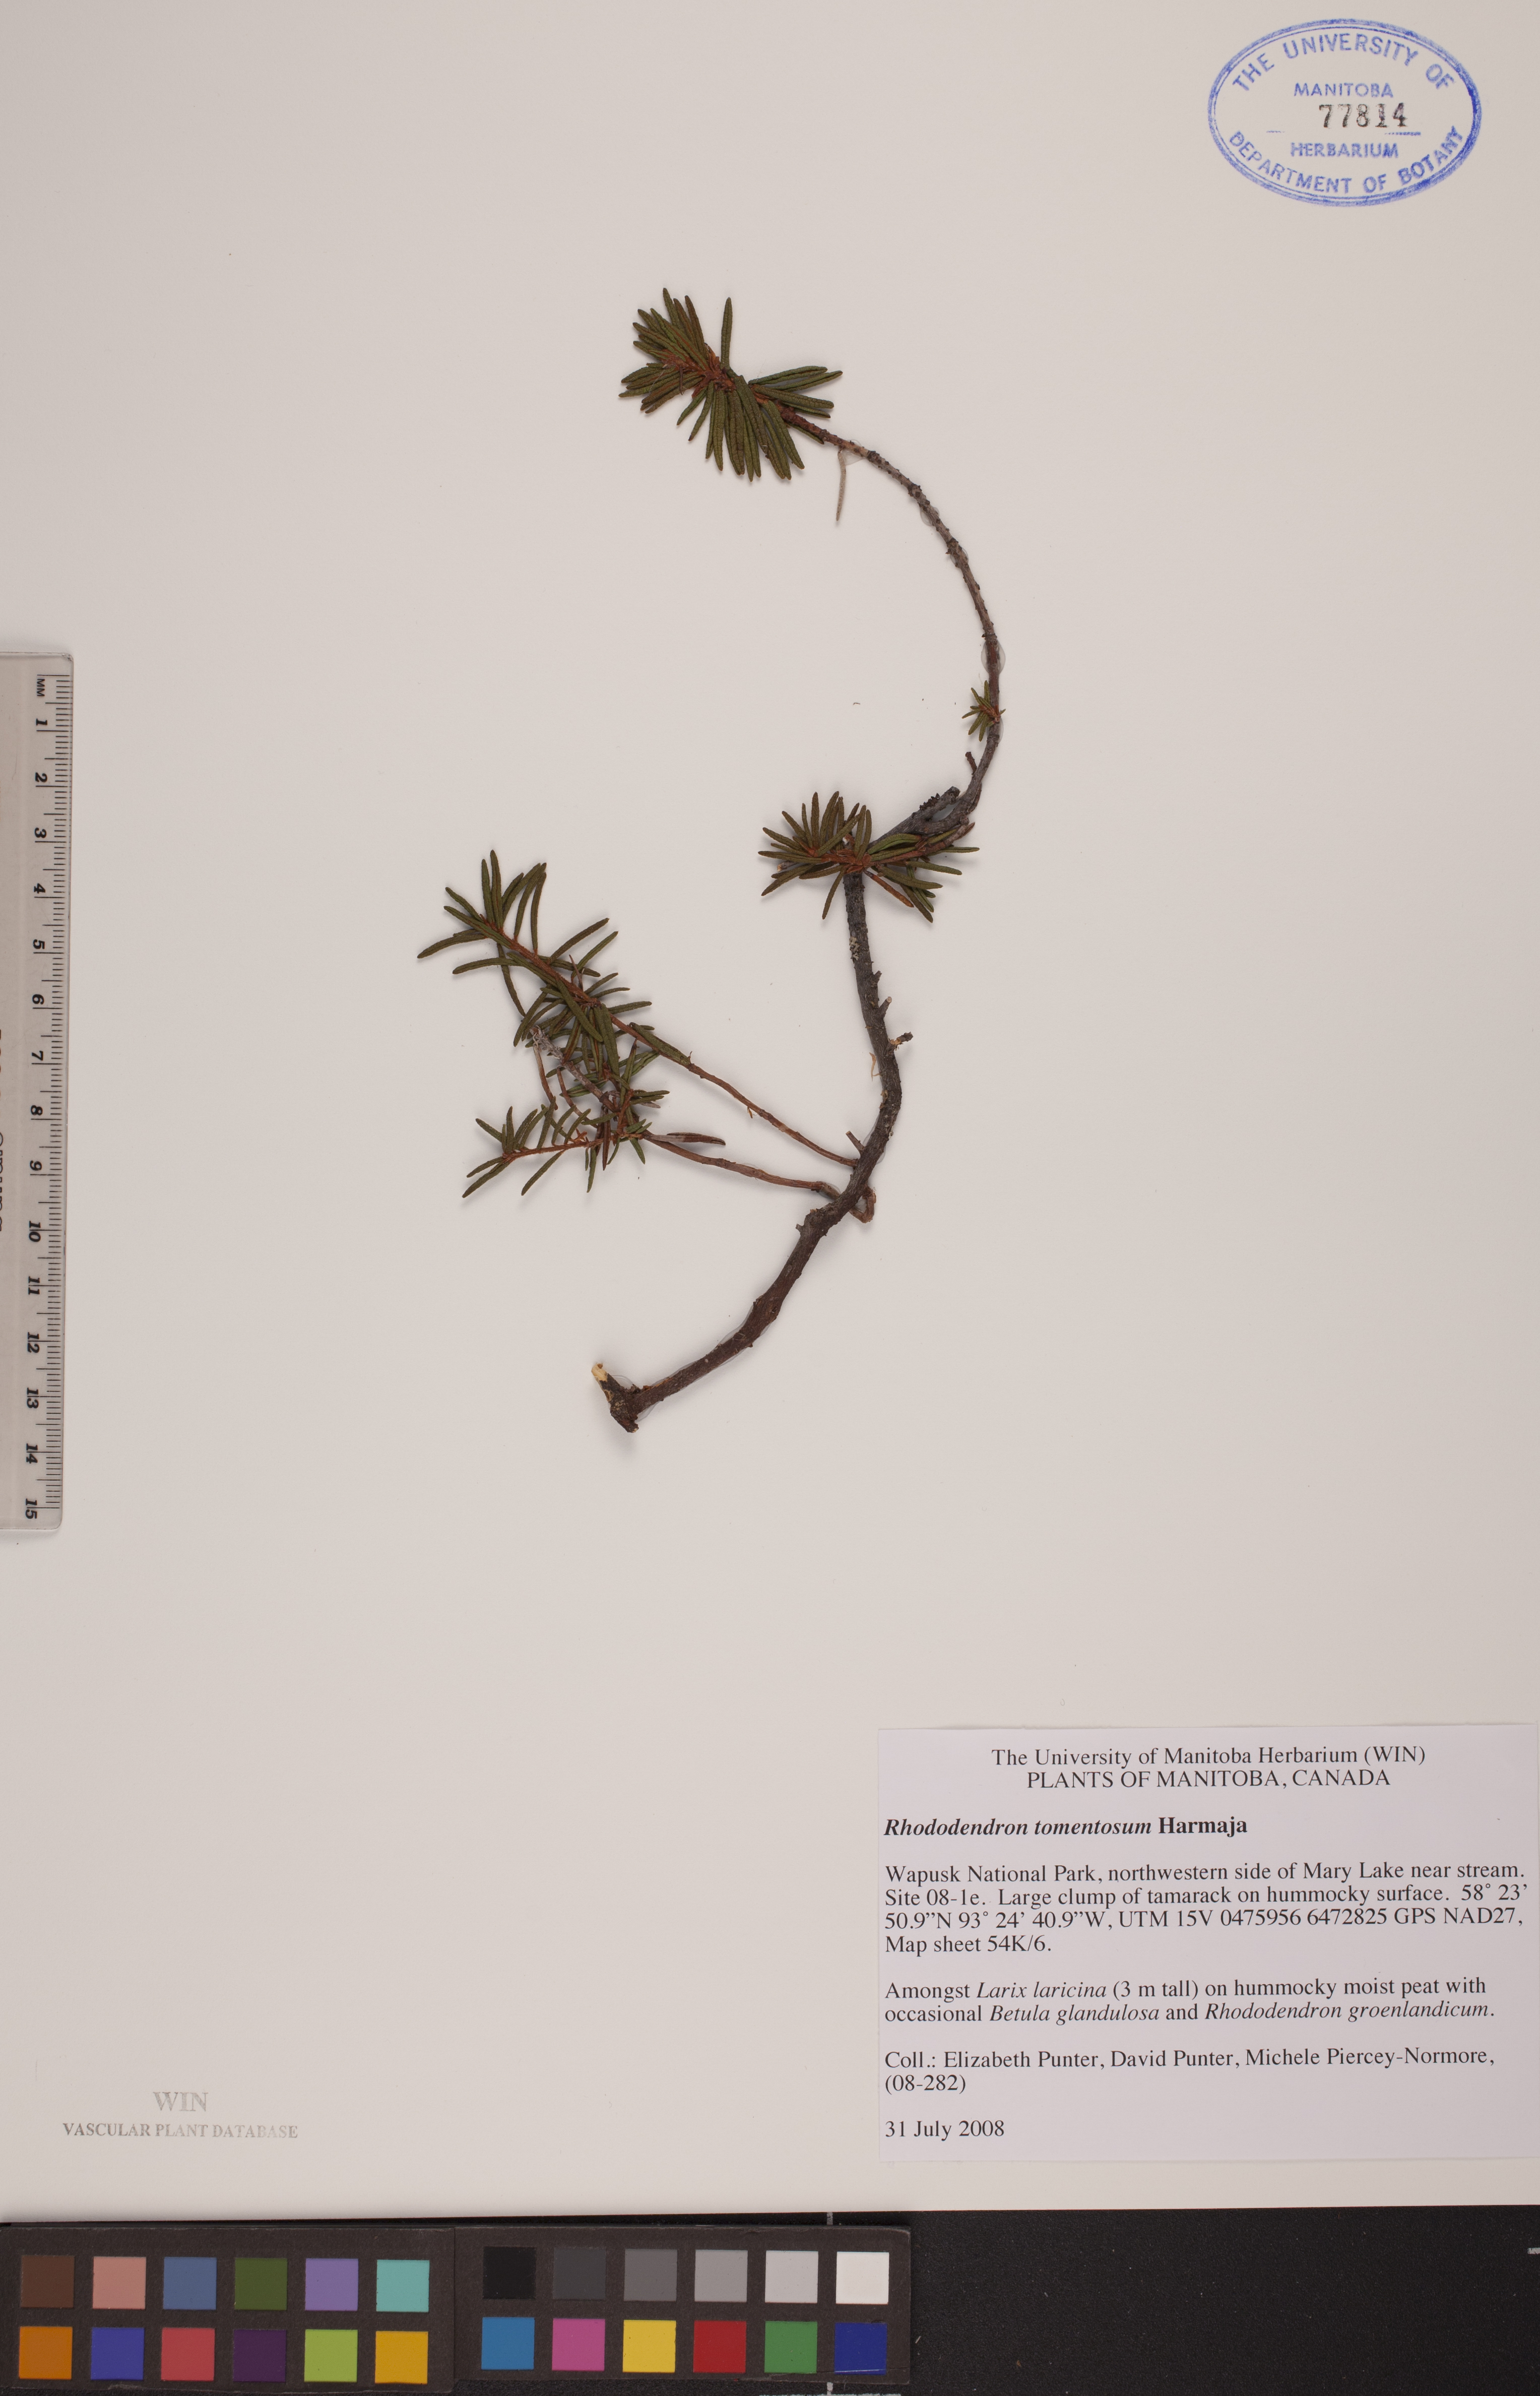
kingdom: Plantae
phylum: Tracheophyta
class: Magnoliopsida
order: Ericales
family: Ericaceae
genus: Rhododendron
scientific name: Rhododendron tomentosum
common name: Marsh labrador tea
